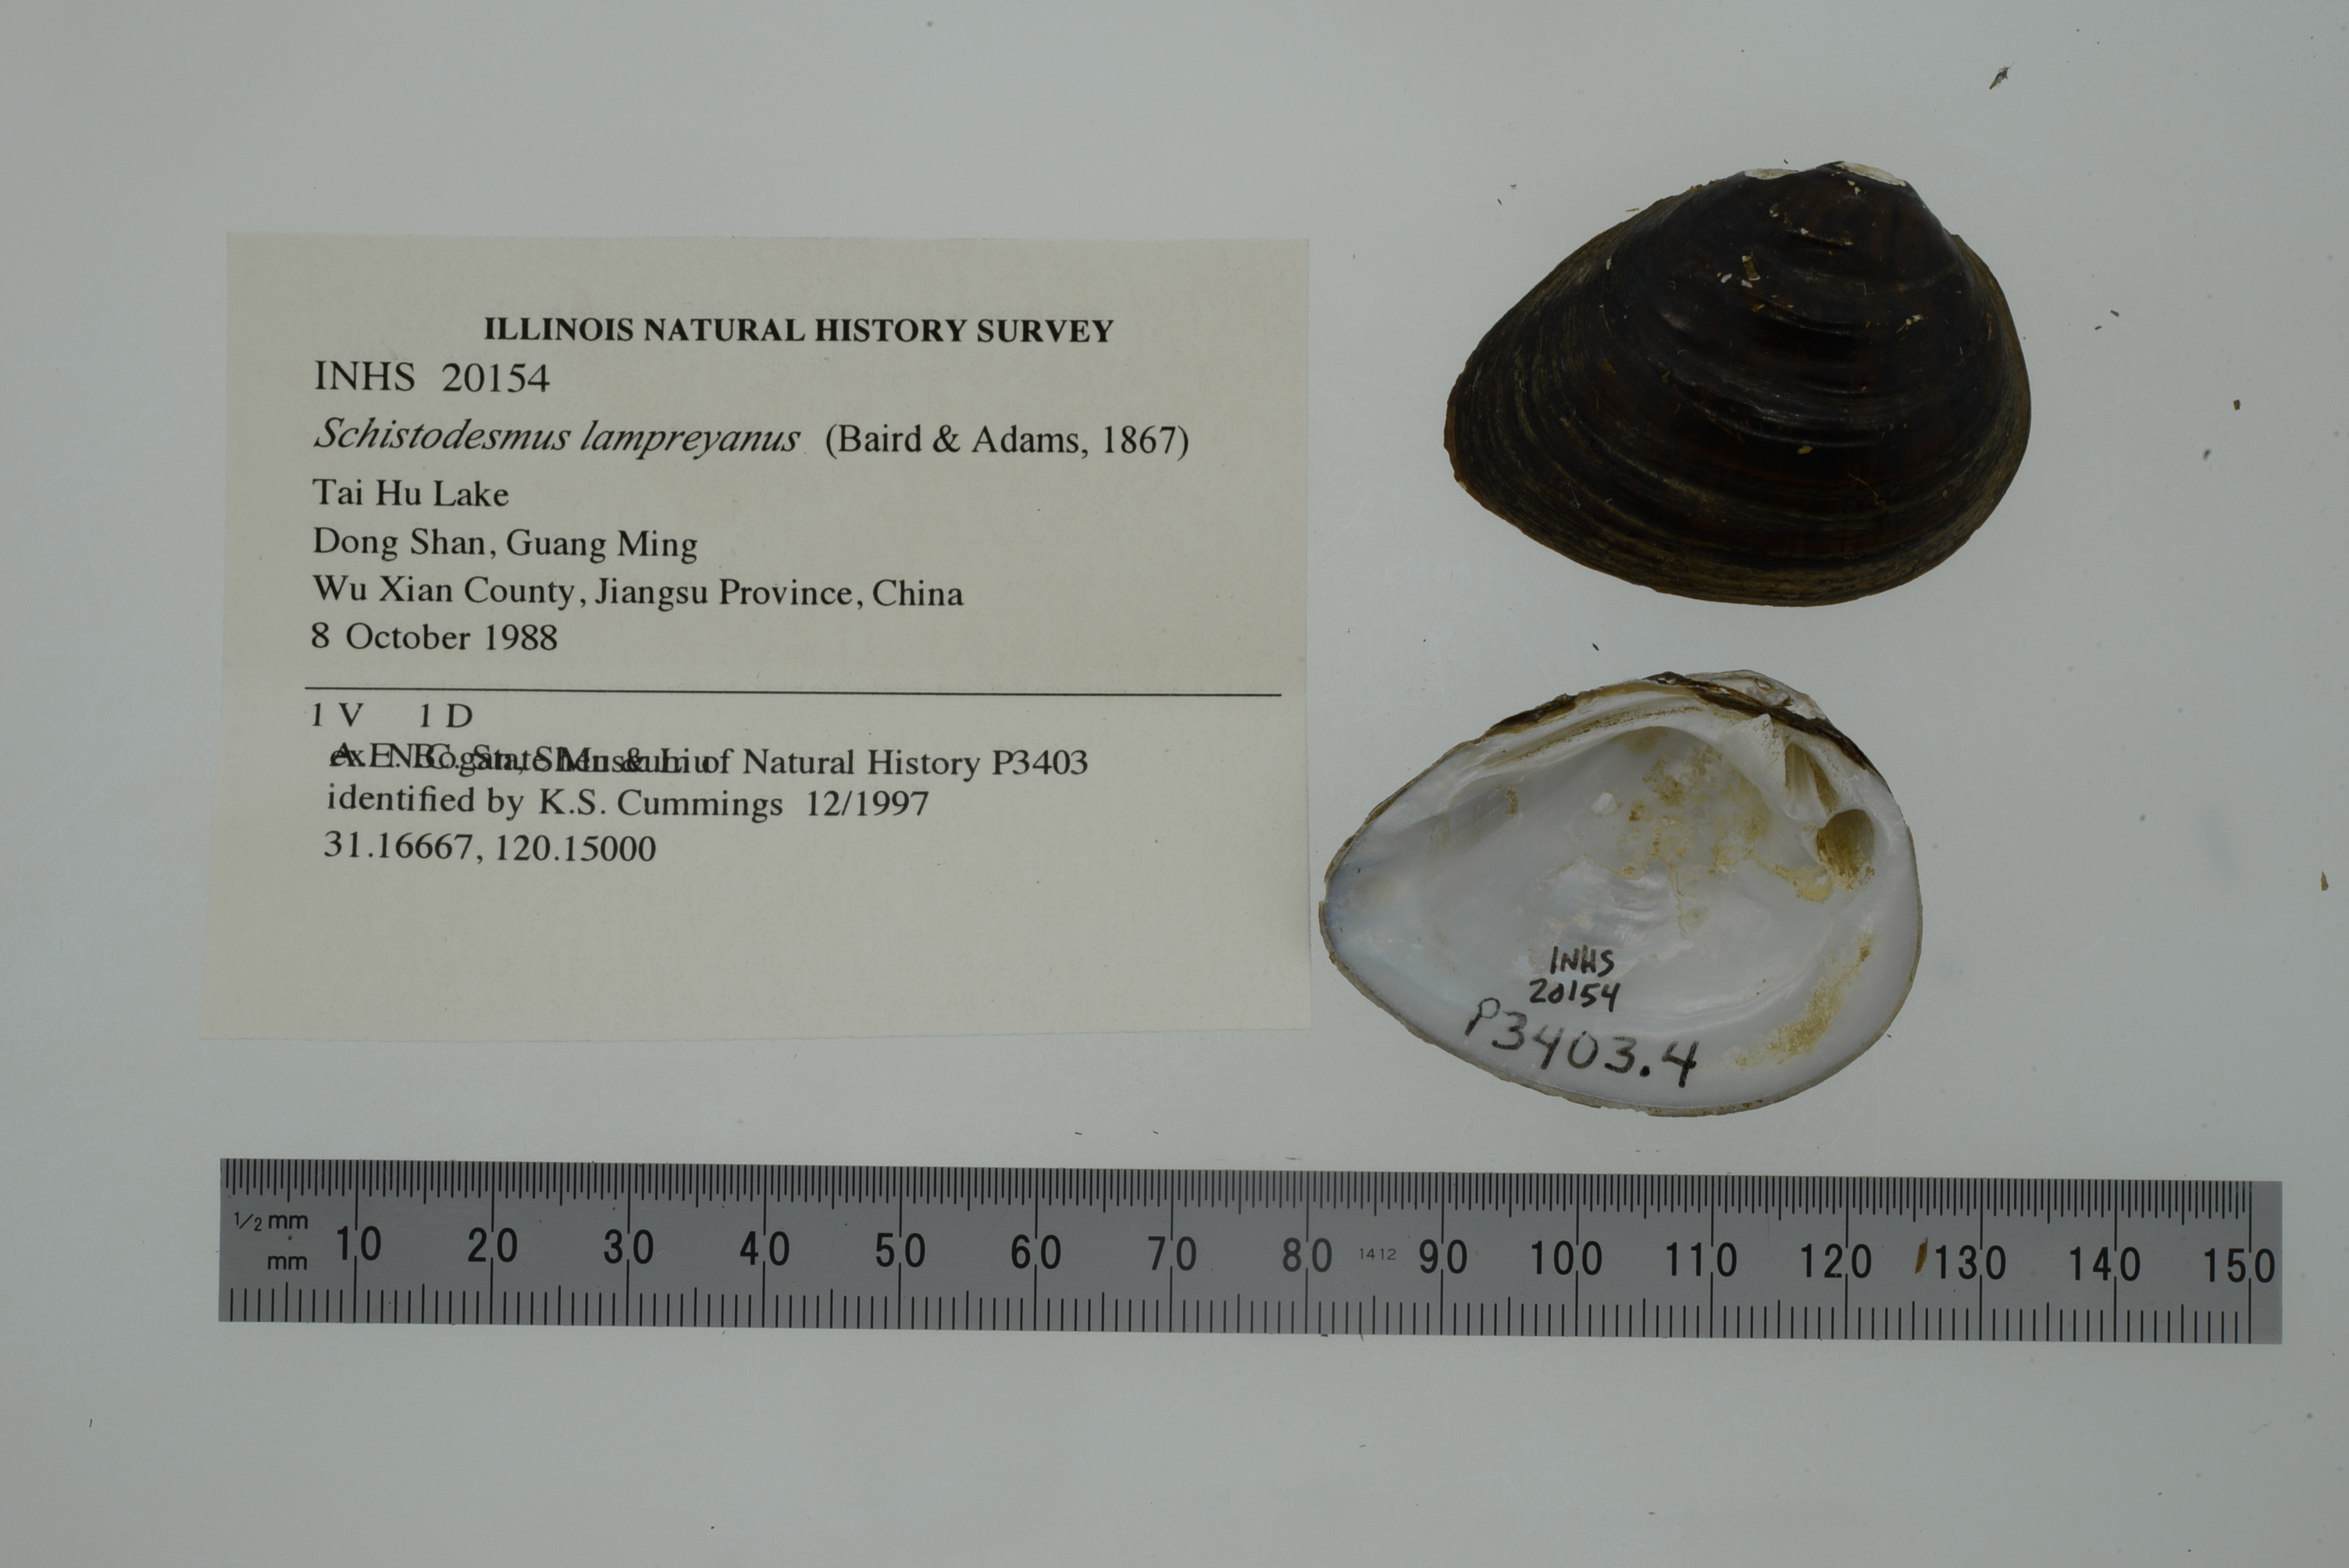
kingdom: Animalia
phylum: Mollusca
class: Bivalvia
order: Unionida
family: Unionidae
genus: Schistodesmus
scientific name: Schistodesmus lampreyanus
